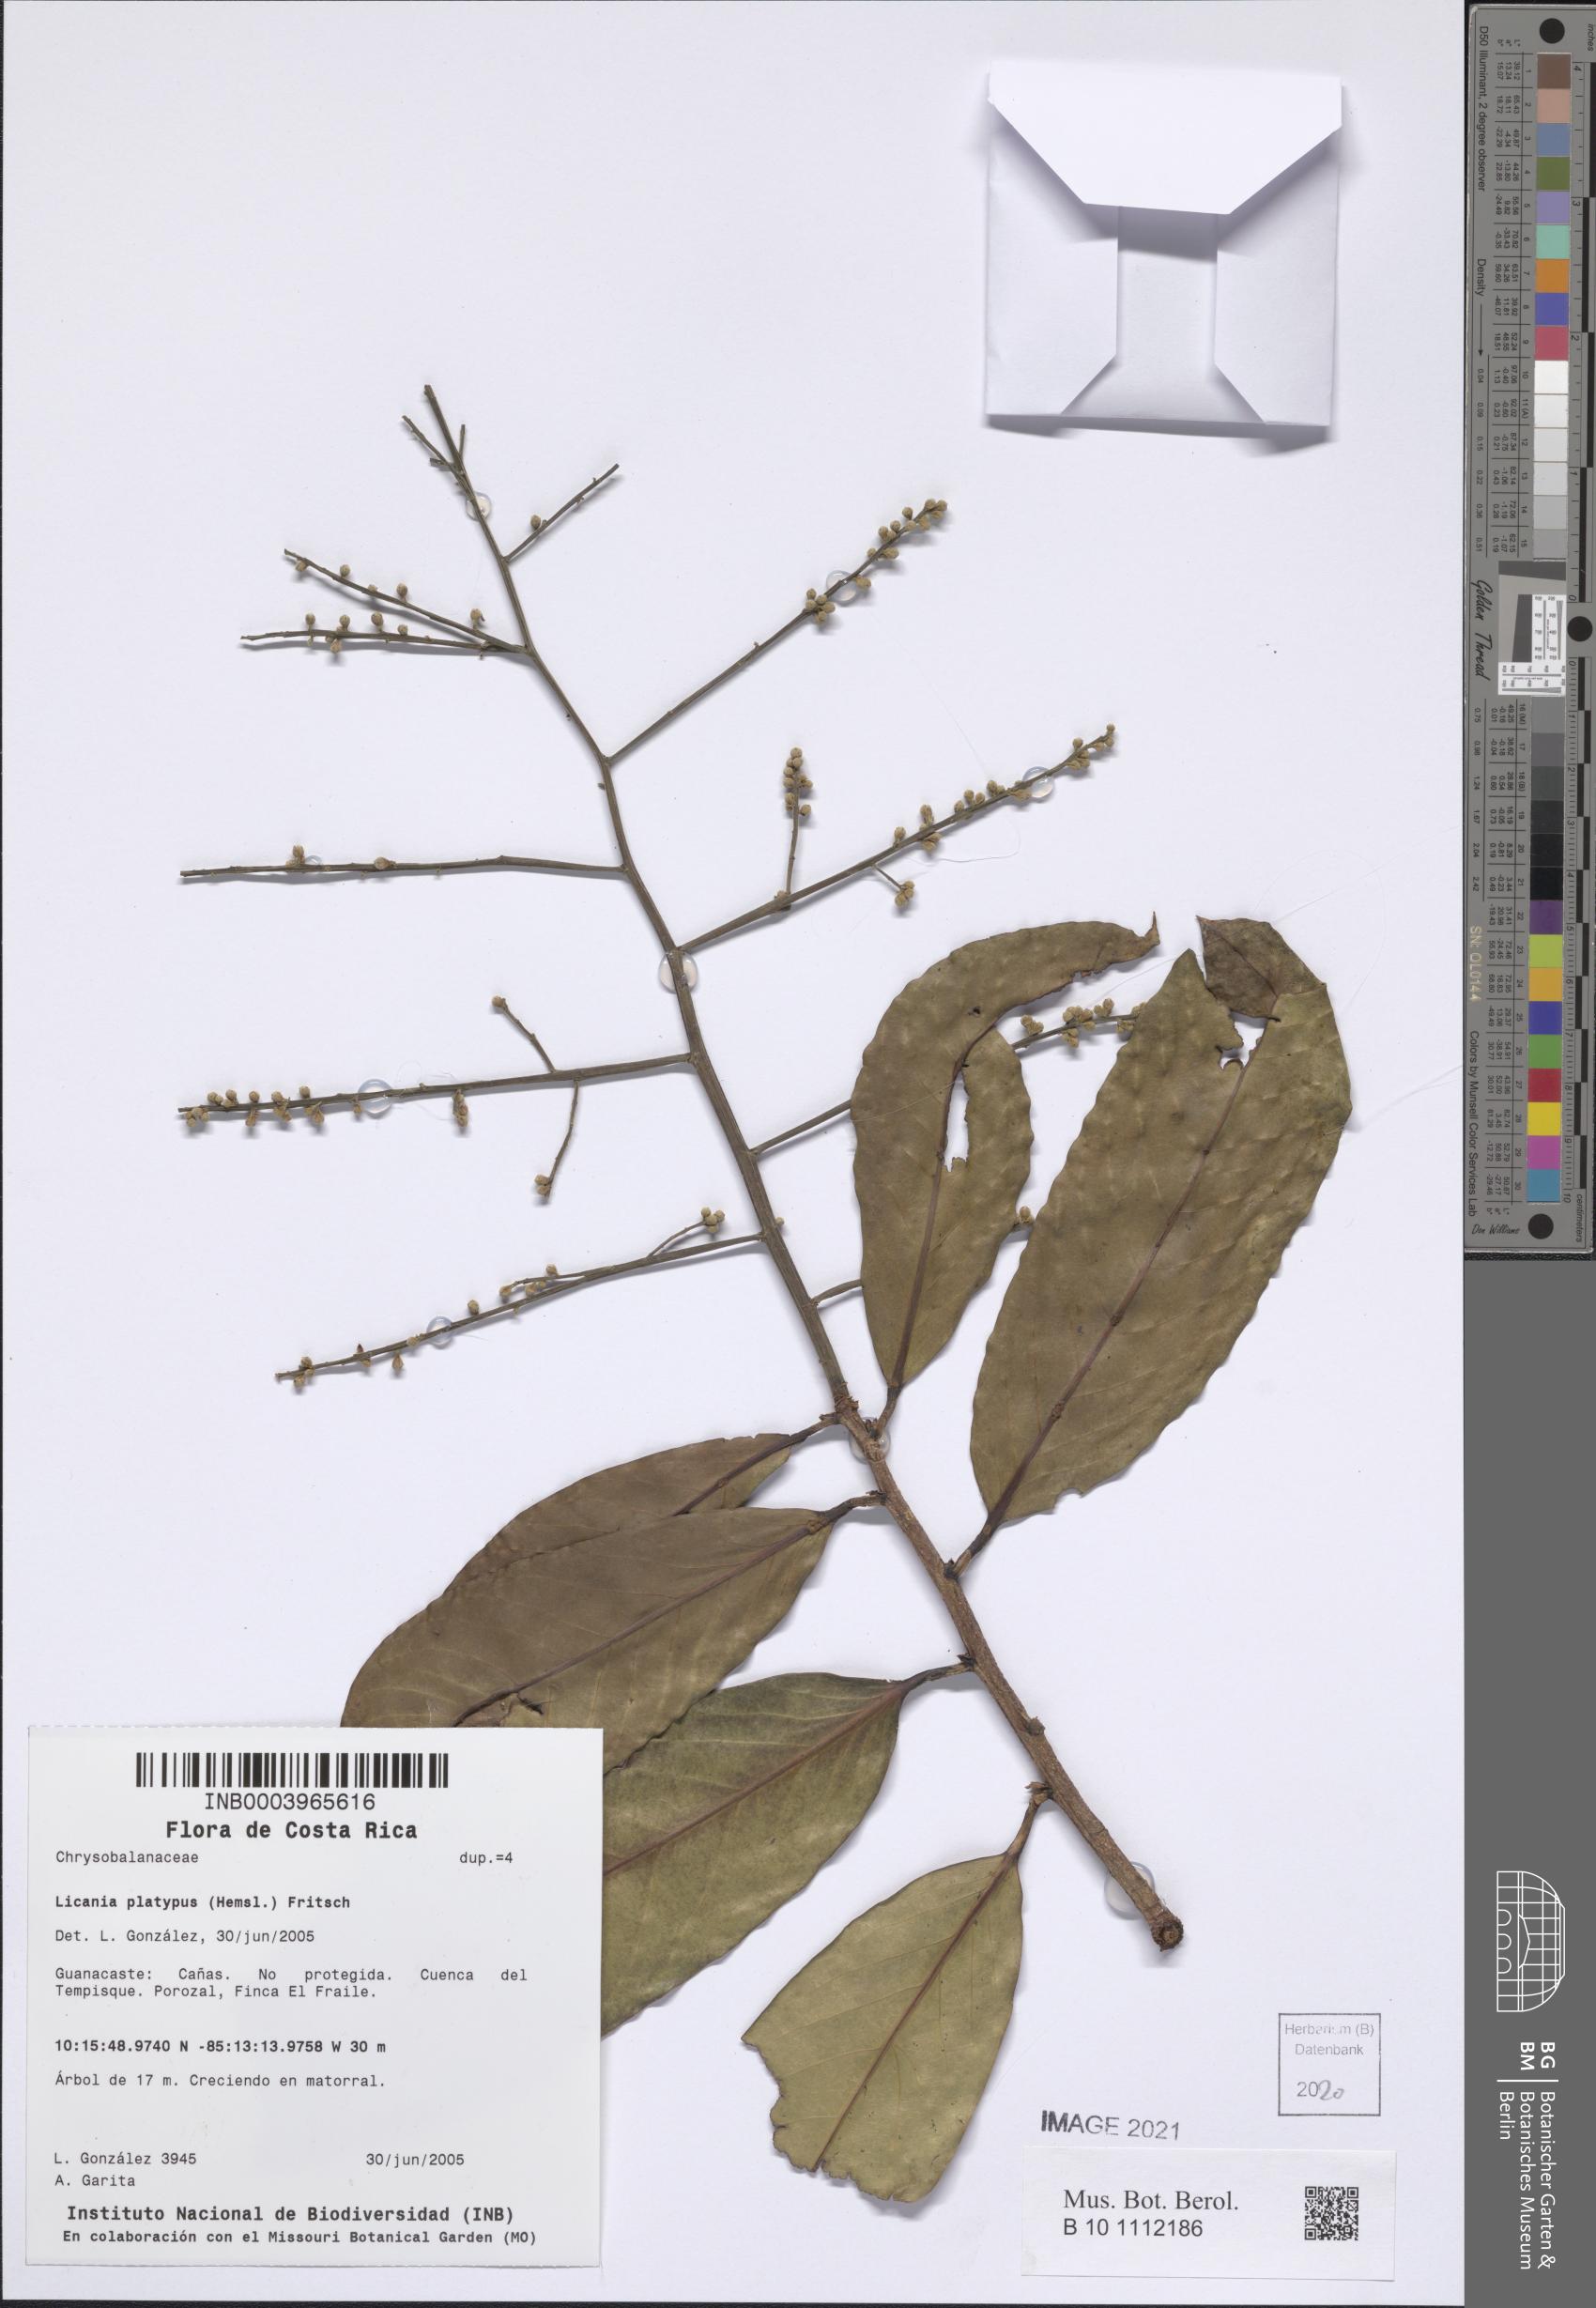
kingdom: Plantae
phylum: Tracheophyta
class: Magnoliopsida
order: Malpighiales
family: Chrysobalanaceae
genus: Moquilea
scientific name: Moquilea platypus
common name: Sansapote
